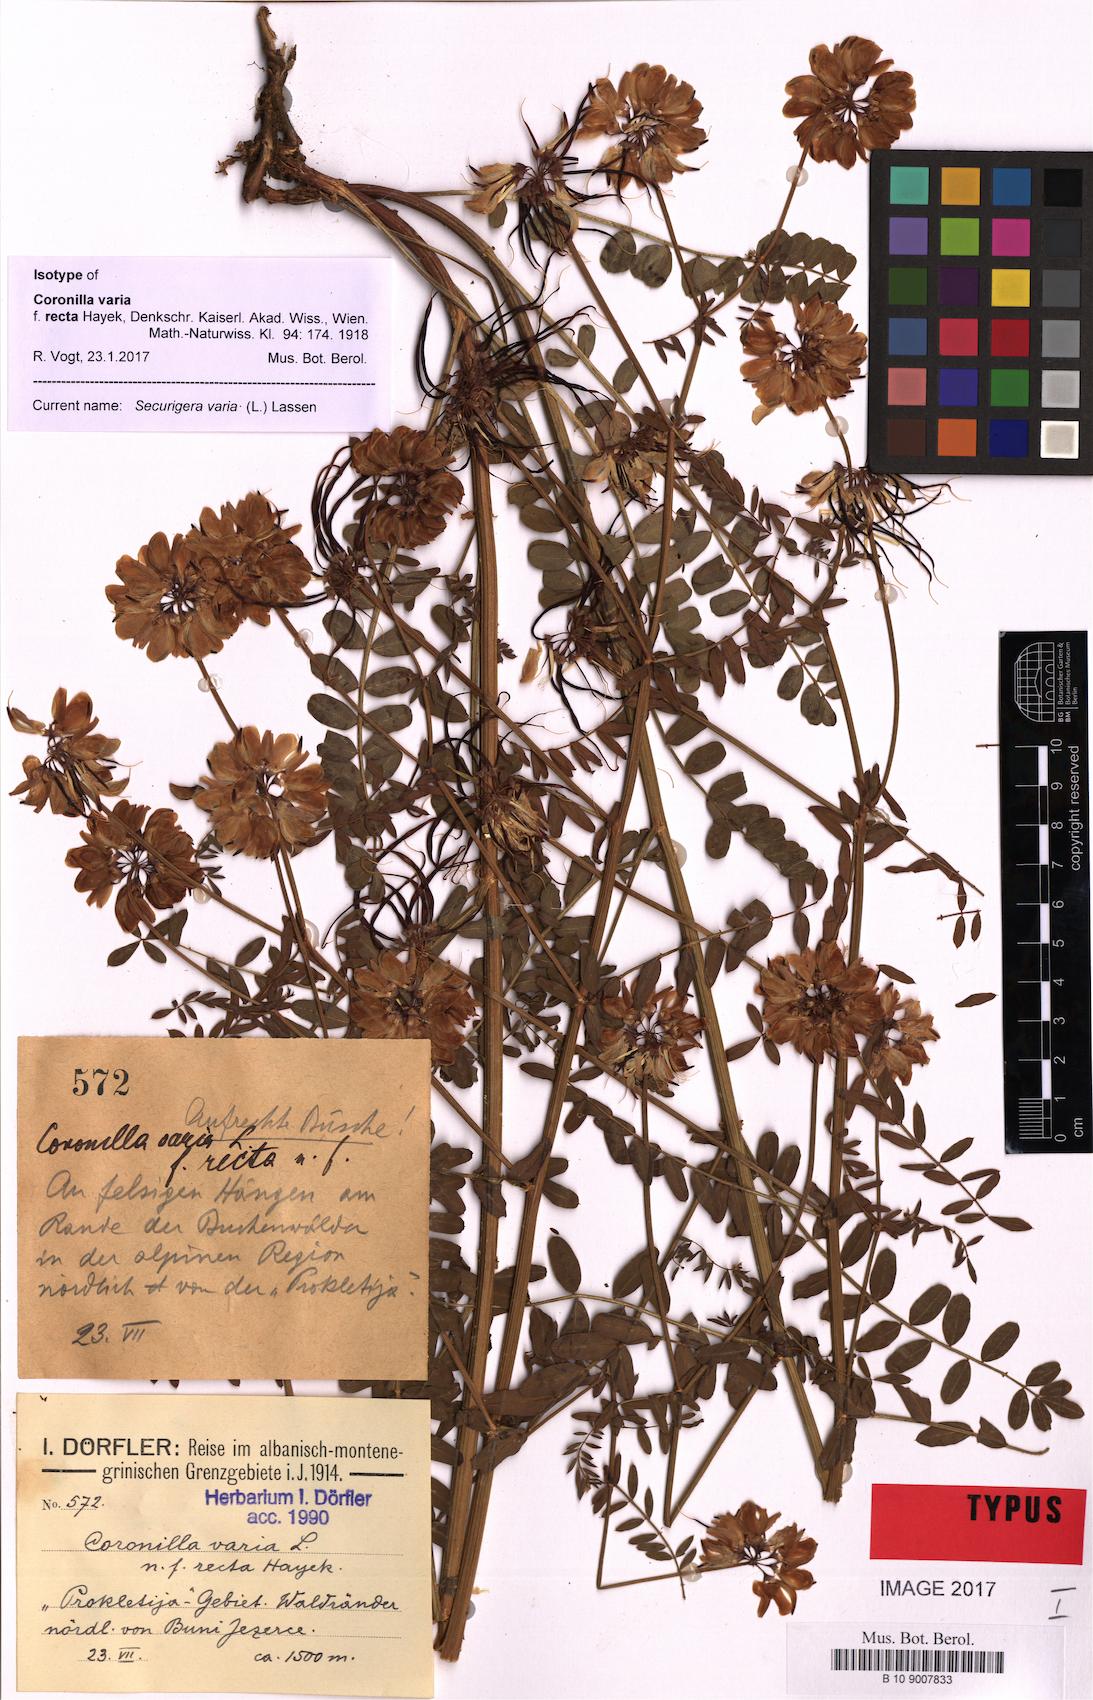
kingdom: Plantae
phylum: Tracheophyta
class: Magnoliopsida
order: Fabales
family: Fabaceae
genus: Coronilla
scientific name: Coronilla varia
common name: Crownvetch
